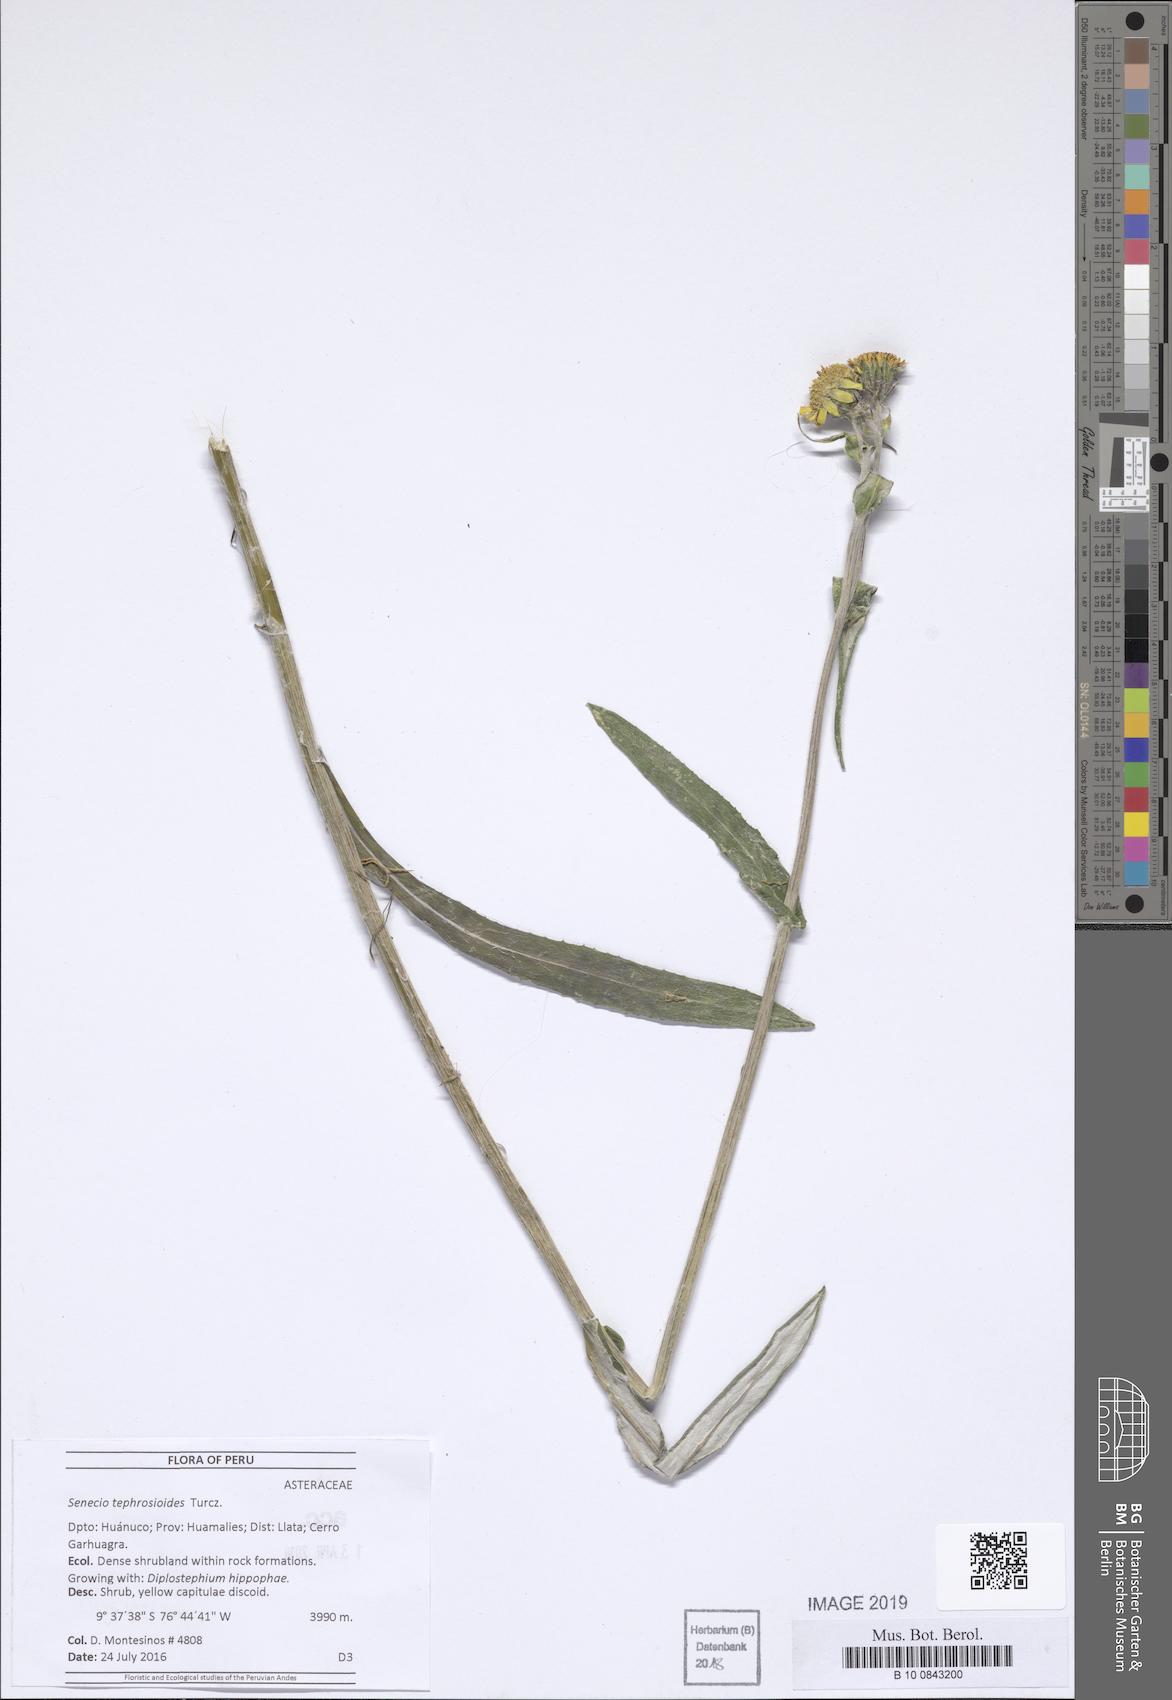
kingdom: Plantae
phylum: Tracheophyta
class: Magnoliopsida
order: Asterales
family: Asteraceae
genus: Senecio
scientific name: Senecio
